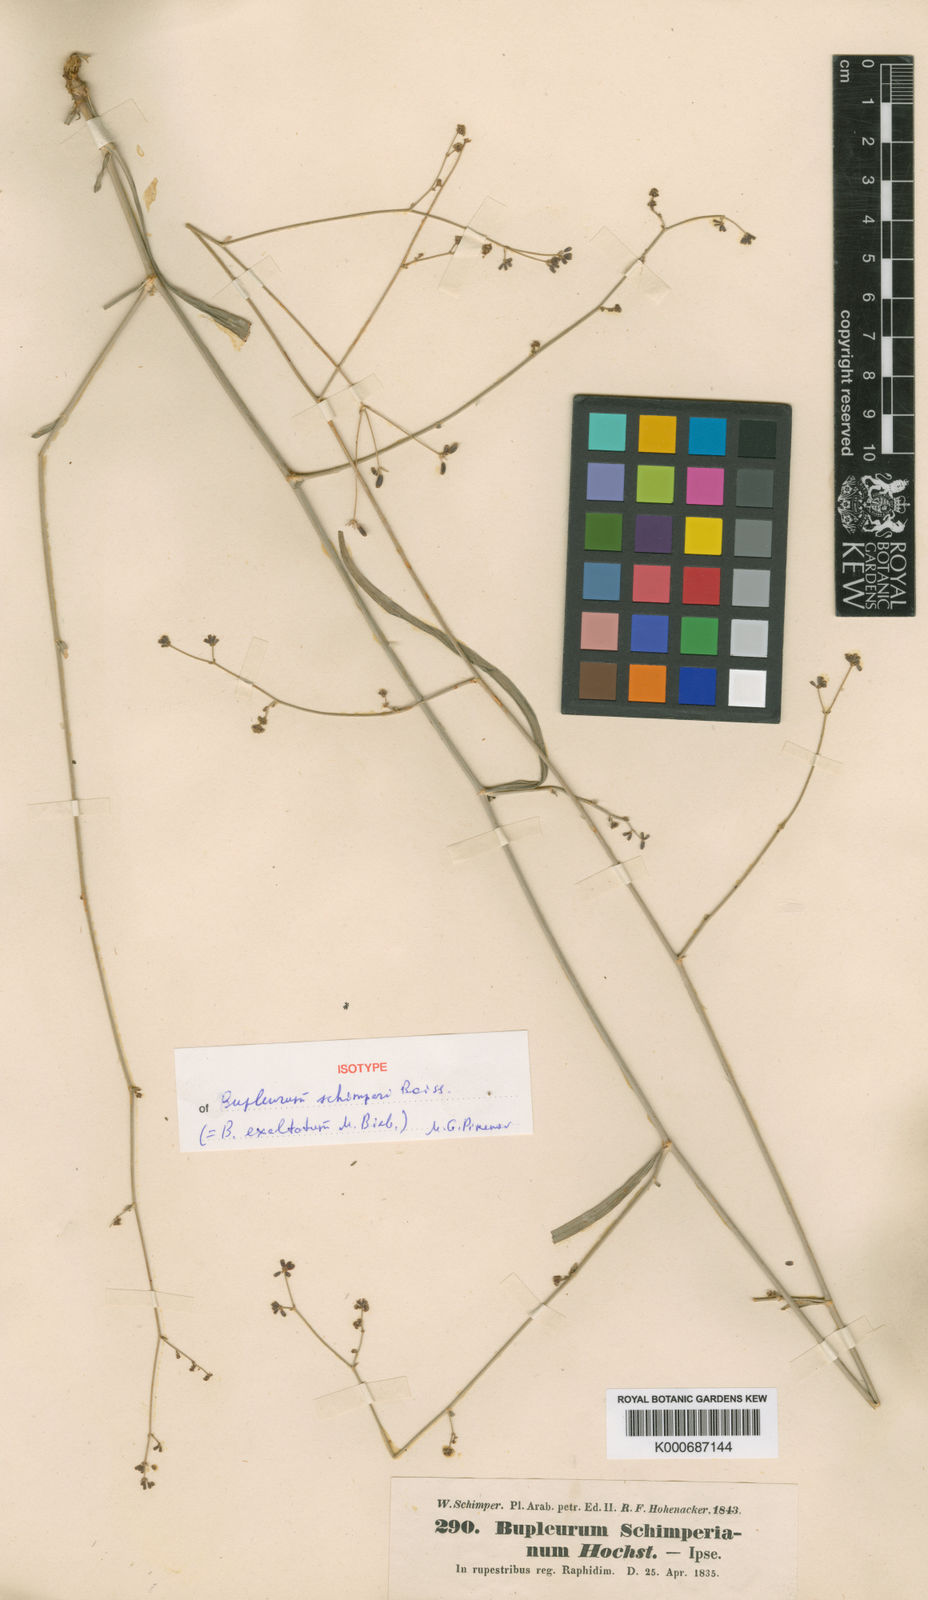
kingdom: Plantae
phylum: Tracheophyta
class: Magnoliopsida
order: Apiales
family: Apiaceae
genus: Bupleurum
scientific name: Bupleurum falcatum
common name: Sickle-leaved hare's-ear
